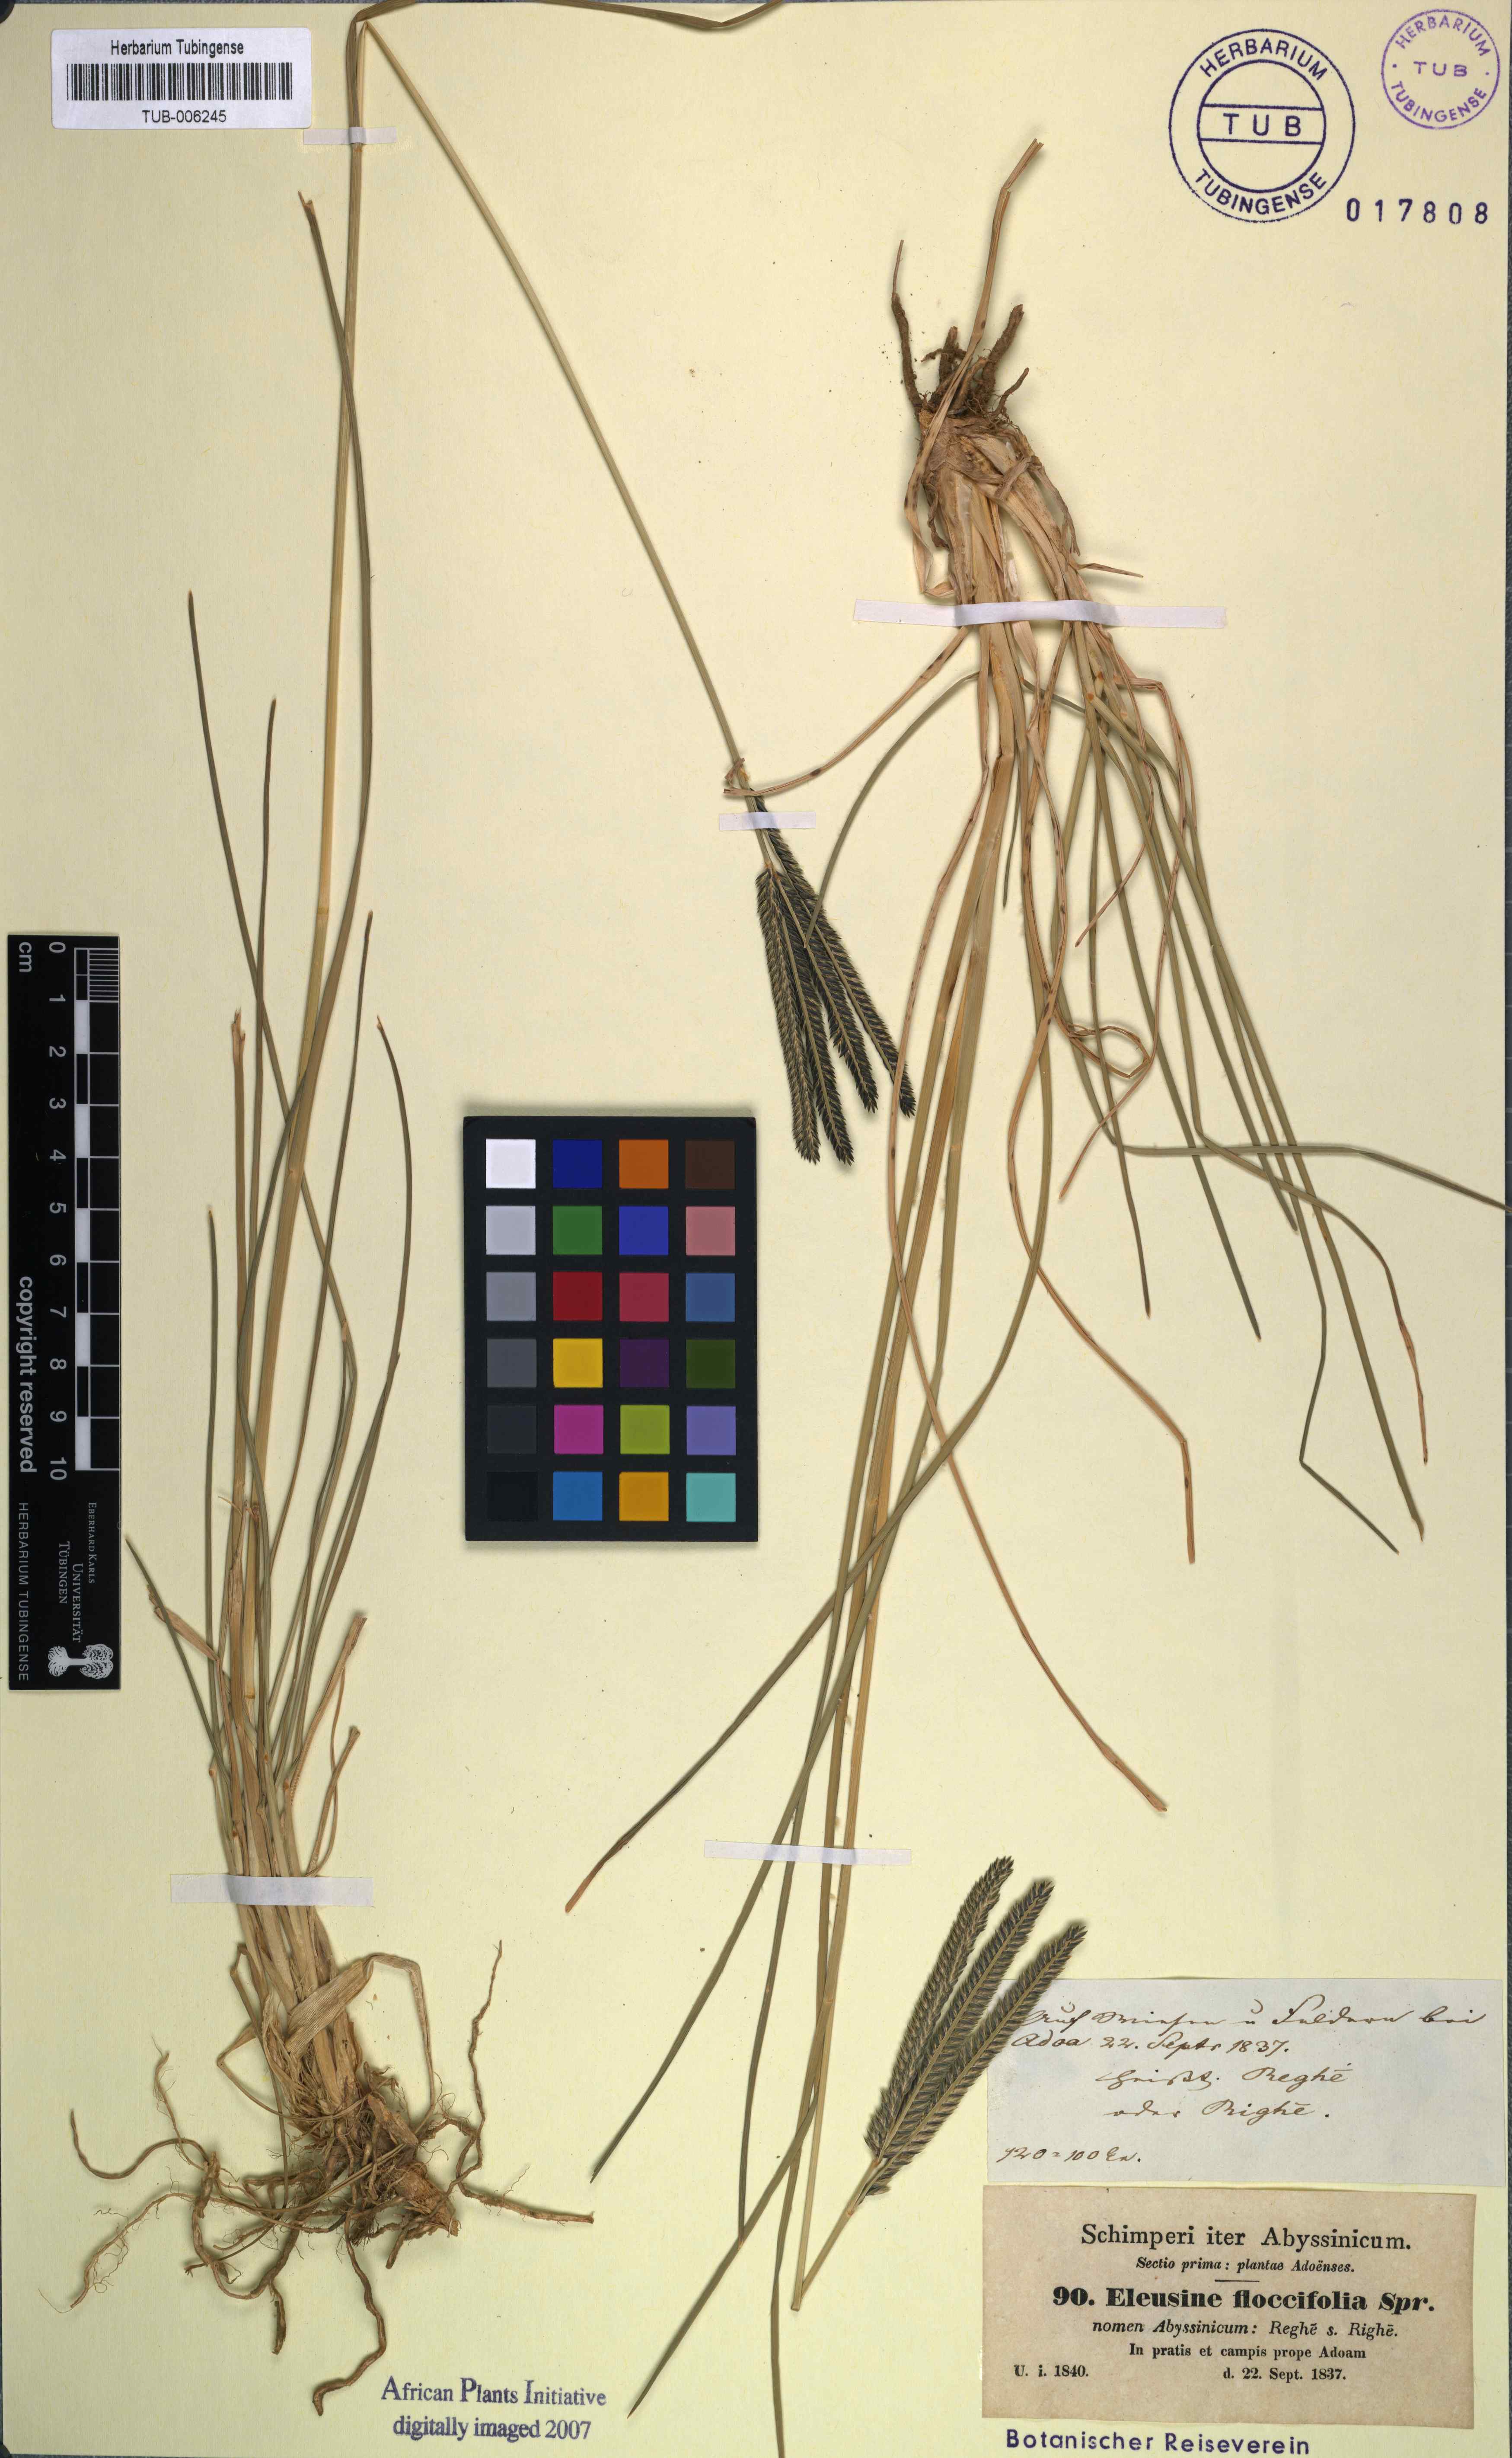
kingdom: Plantae
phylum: Tracheophyta
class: Liliopsida
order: Poales
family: Poaceae
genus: Eleusine
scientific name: Eleusine floccifolia
